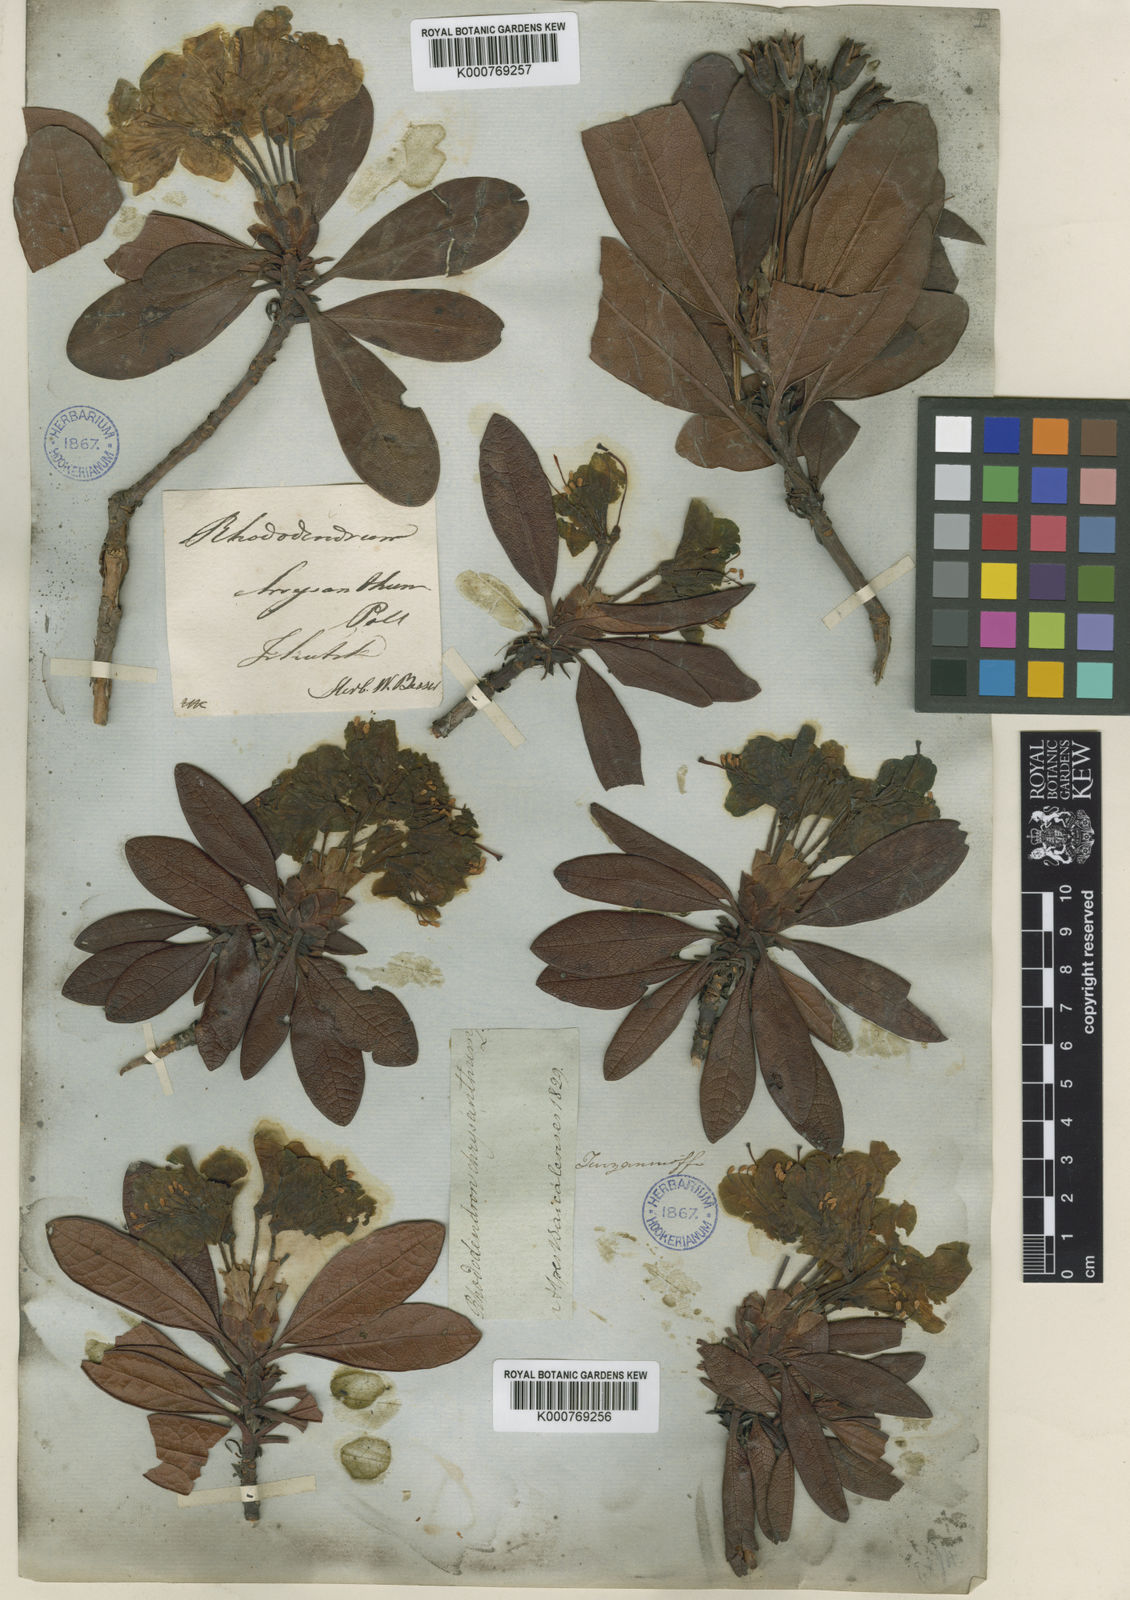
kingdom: Plantae
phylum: Tracheophyta
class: Magnoliopsida
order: Ericales
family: Ericaceae
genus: Rhododendron
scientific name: Rhododendron
